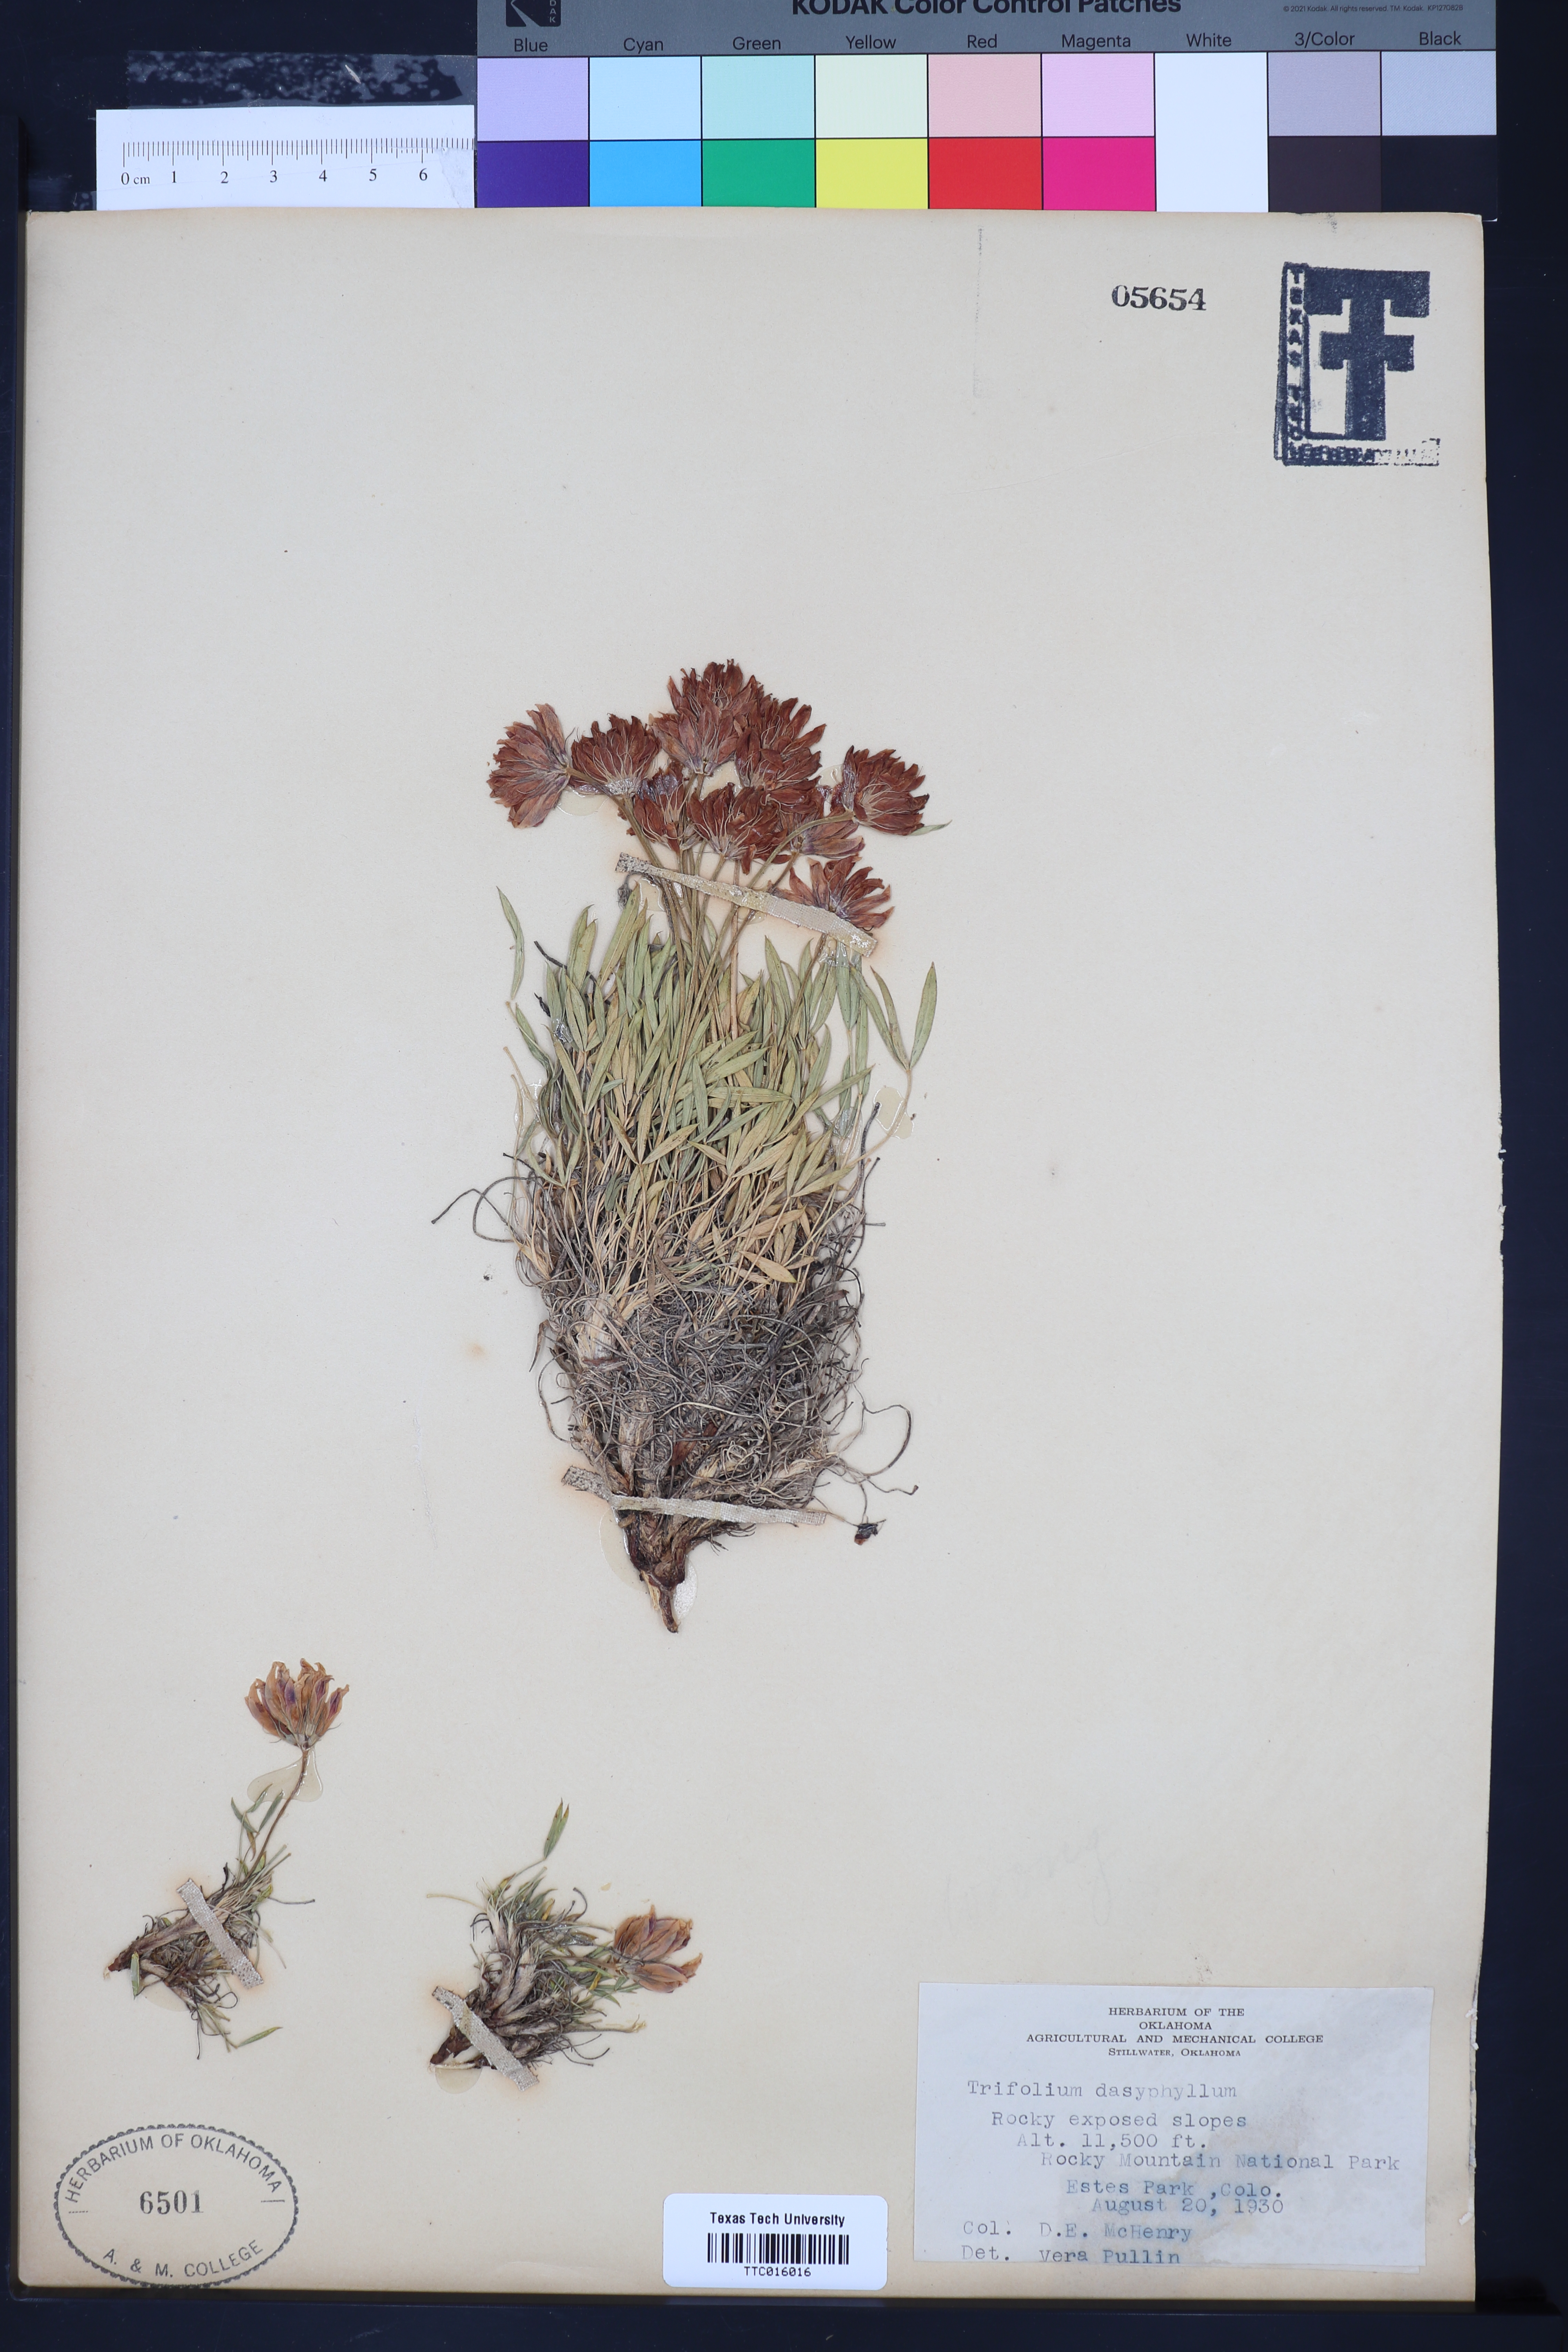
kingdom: Plantae
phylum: Tracheophyta
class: Magnoliopsida
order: Fabales
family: Fabaceae
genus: Trifolium
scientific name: Trifolium dasyphyllum
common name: Whip-root clover
